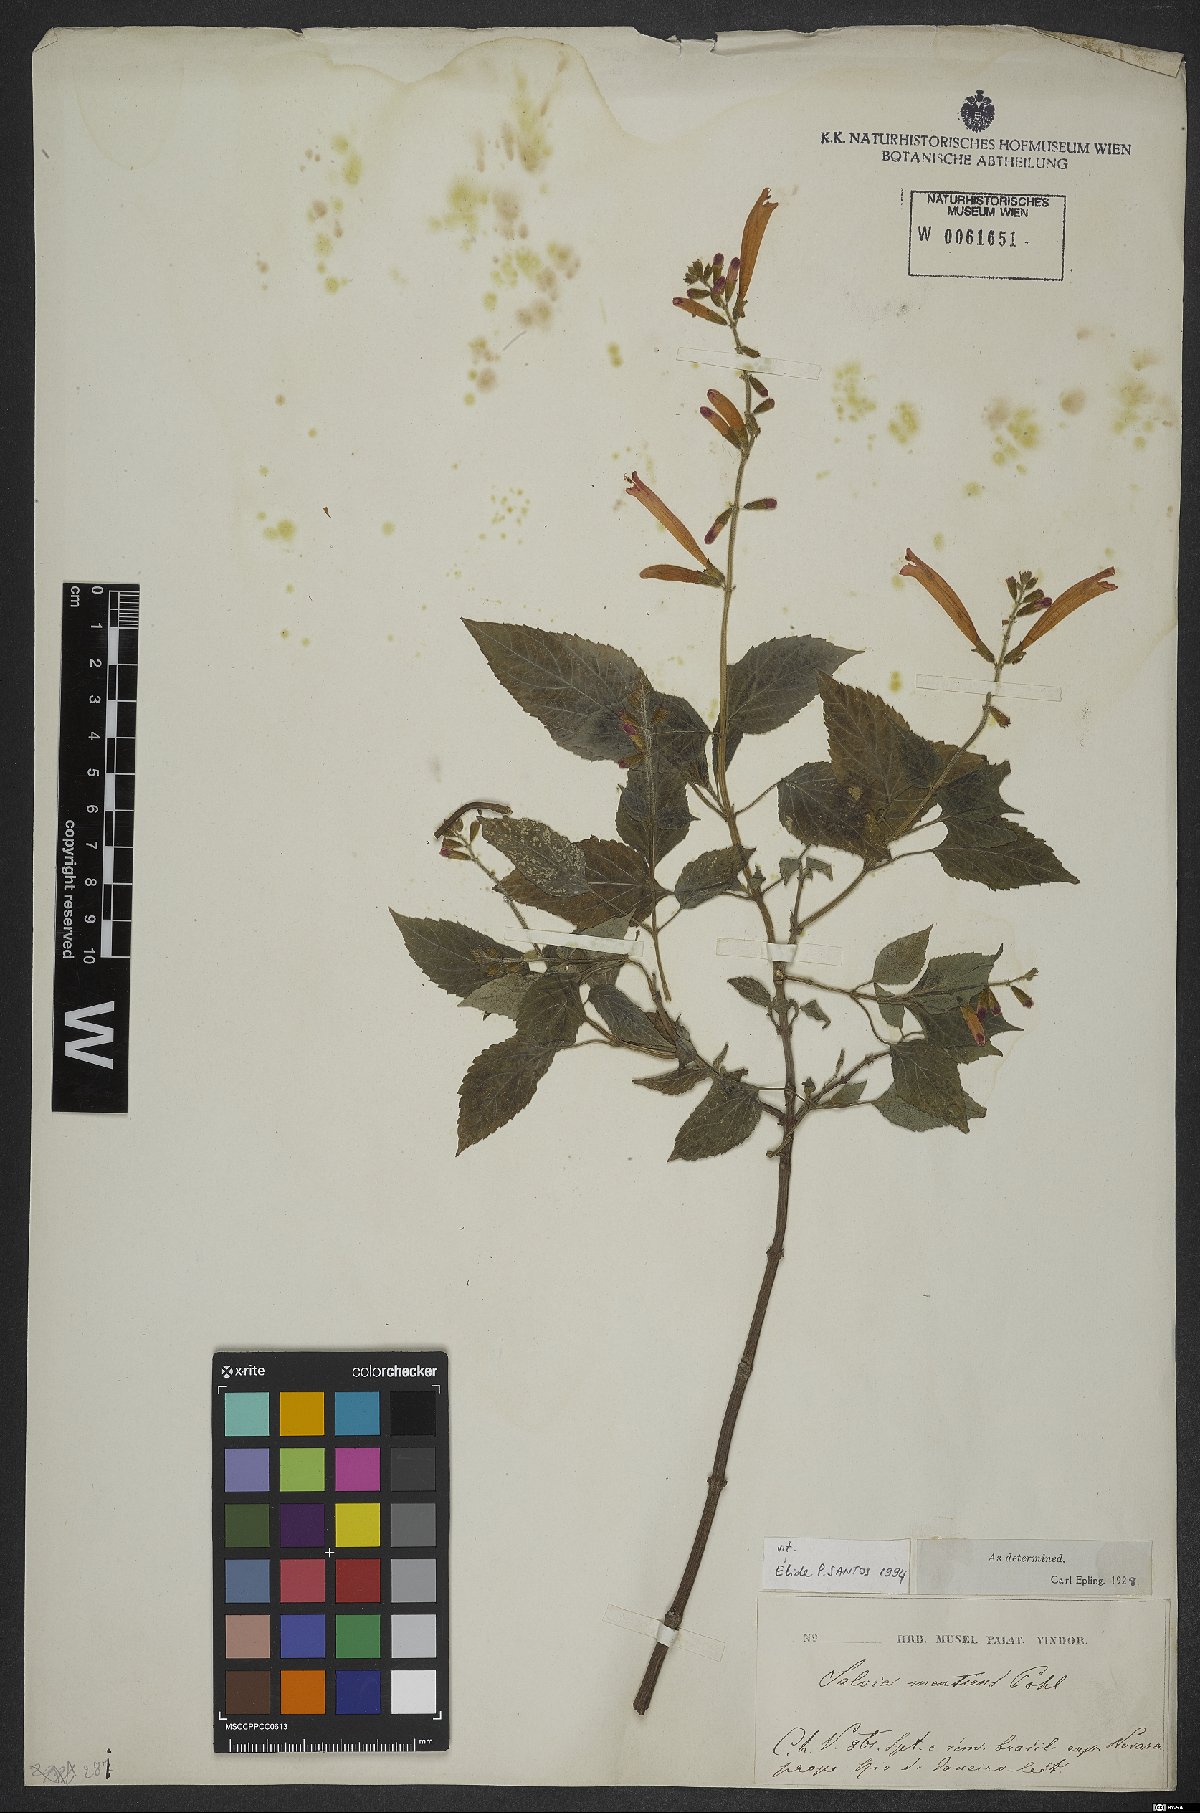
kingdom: Plantae
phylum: Tracheophyta
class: Magnoliopsida
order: Lamiales
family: Lamiaceae
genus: Salvia
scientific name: Salvia mentiens
